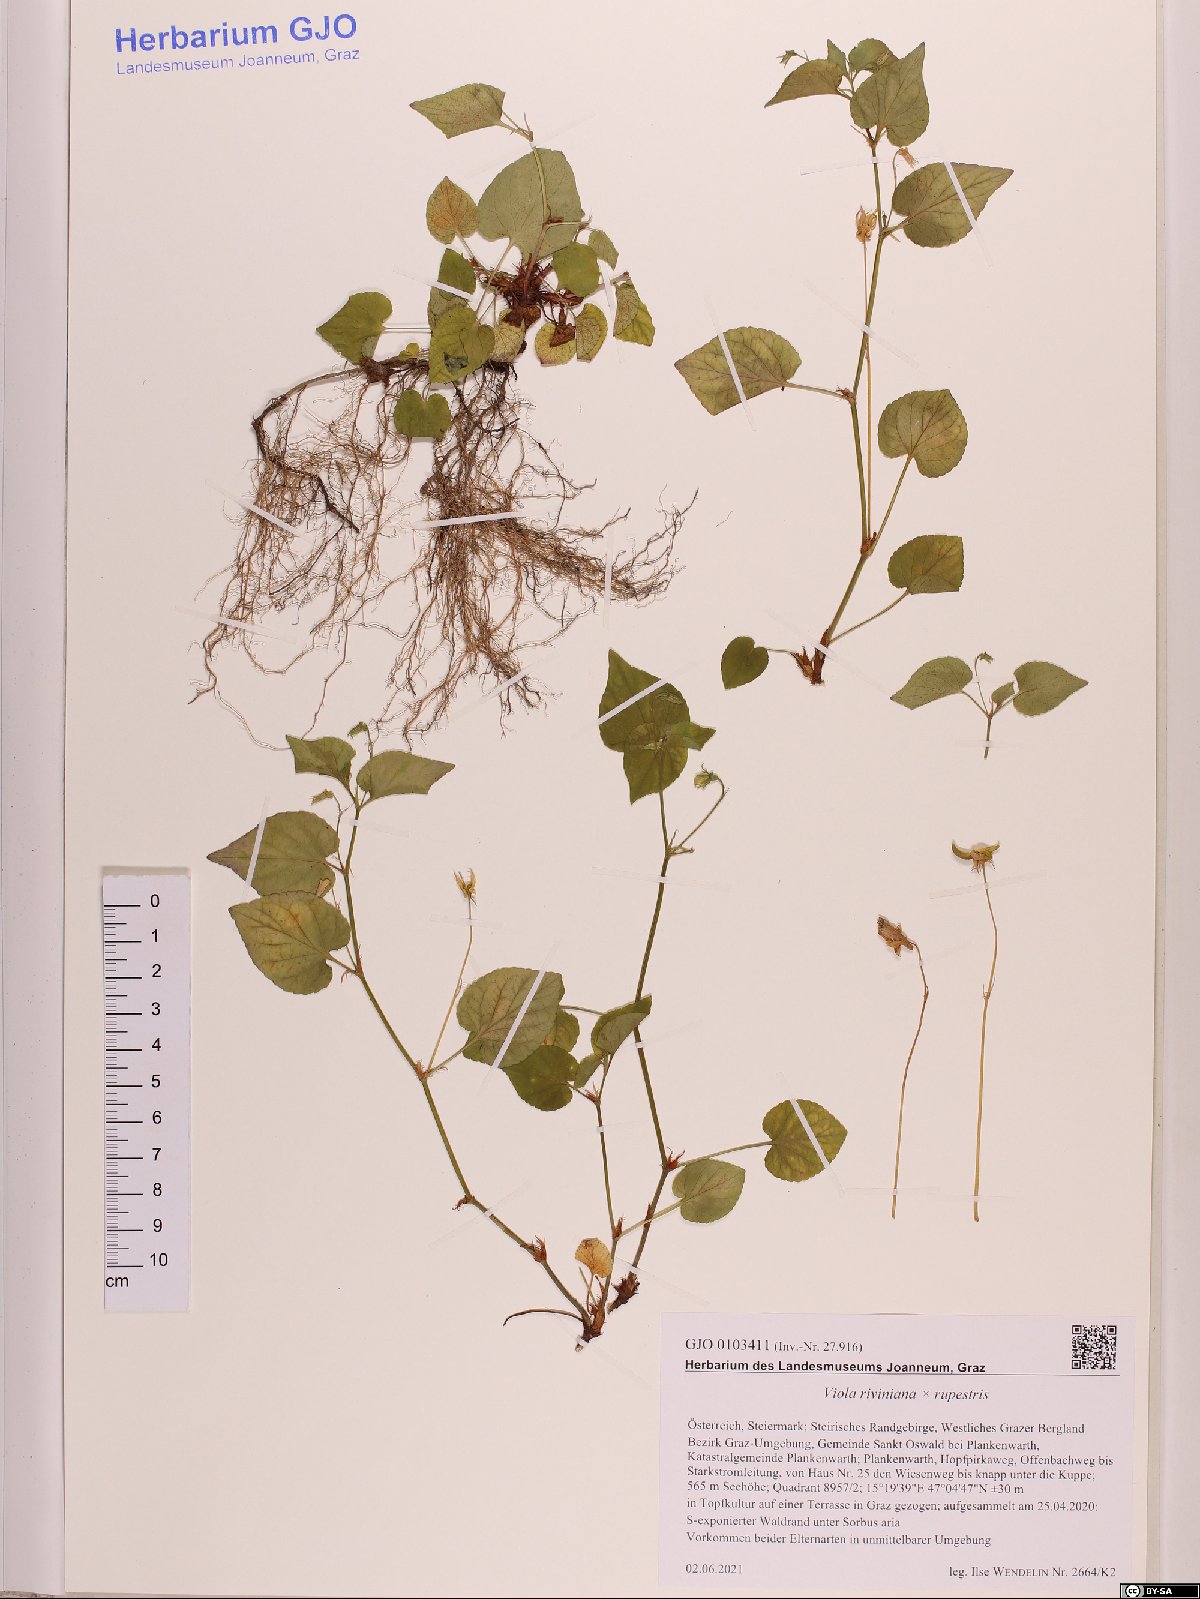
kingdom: Plantae
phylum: Tracheophyta
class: Magnoliopsida
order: Malpighiales
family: Violaceae
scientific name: Violaceae
